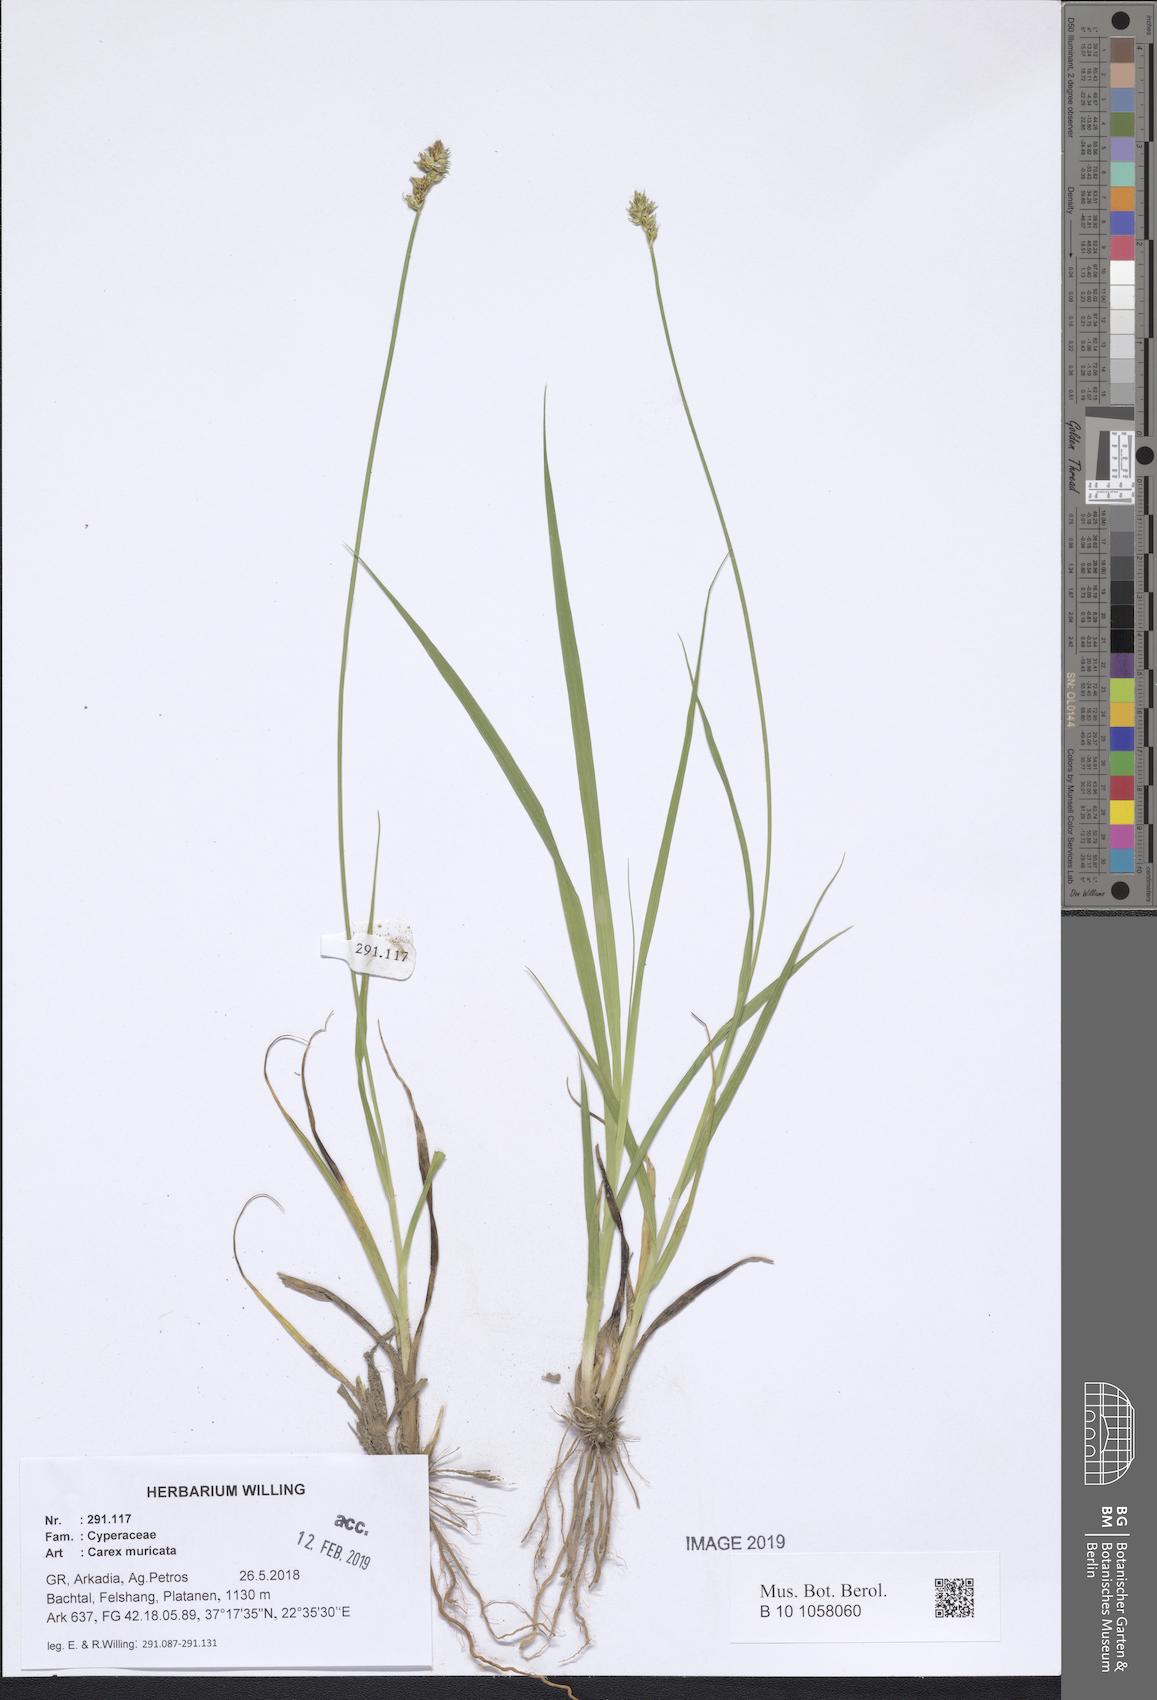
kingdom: Plantae
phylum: Tracheophyta
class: Liliopsida
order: Poales
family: Cyperaceae
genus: Carex
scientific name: Carex muricata
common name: Rough sedge
